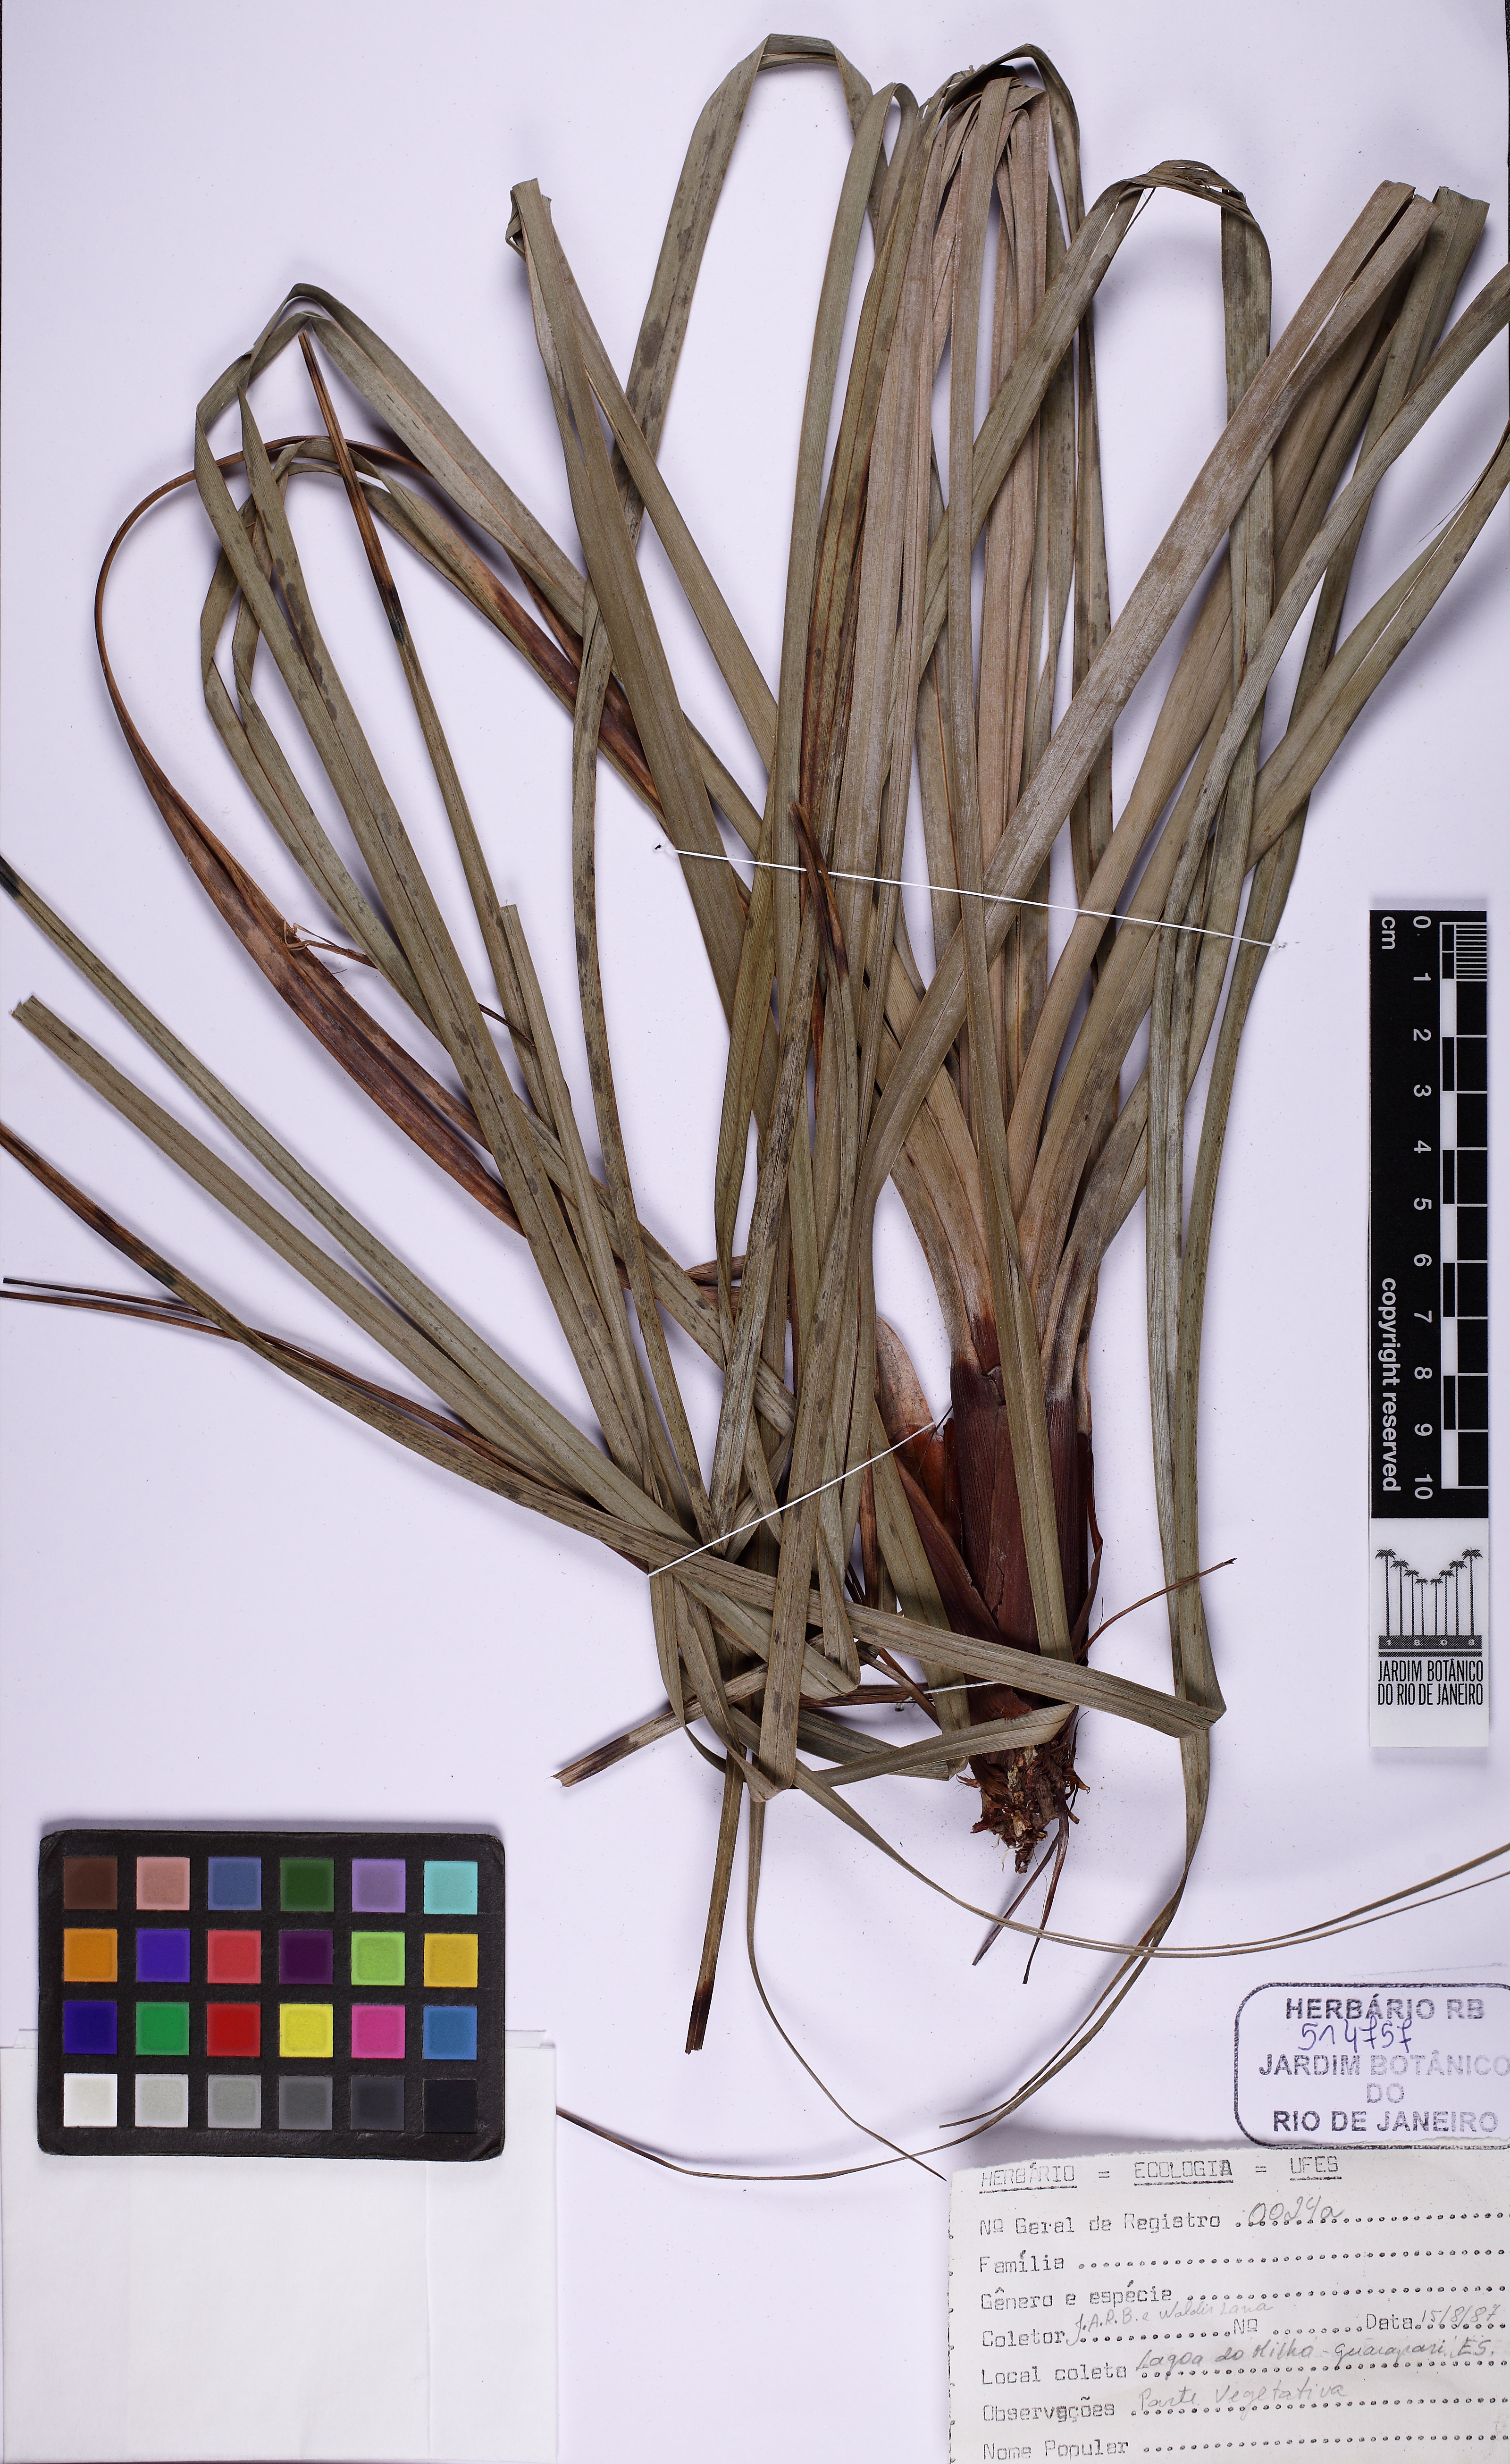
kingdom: Plantae
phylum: Tracheophyta
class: Liliopsida
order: Poales
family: Cyperaceae
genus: Lagenocarpus
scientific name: Lagenocarpus rigidus
